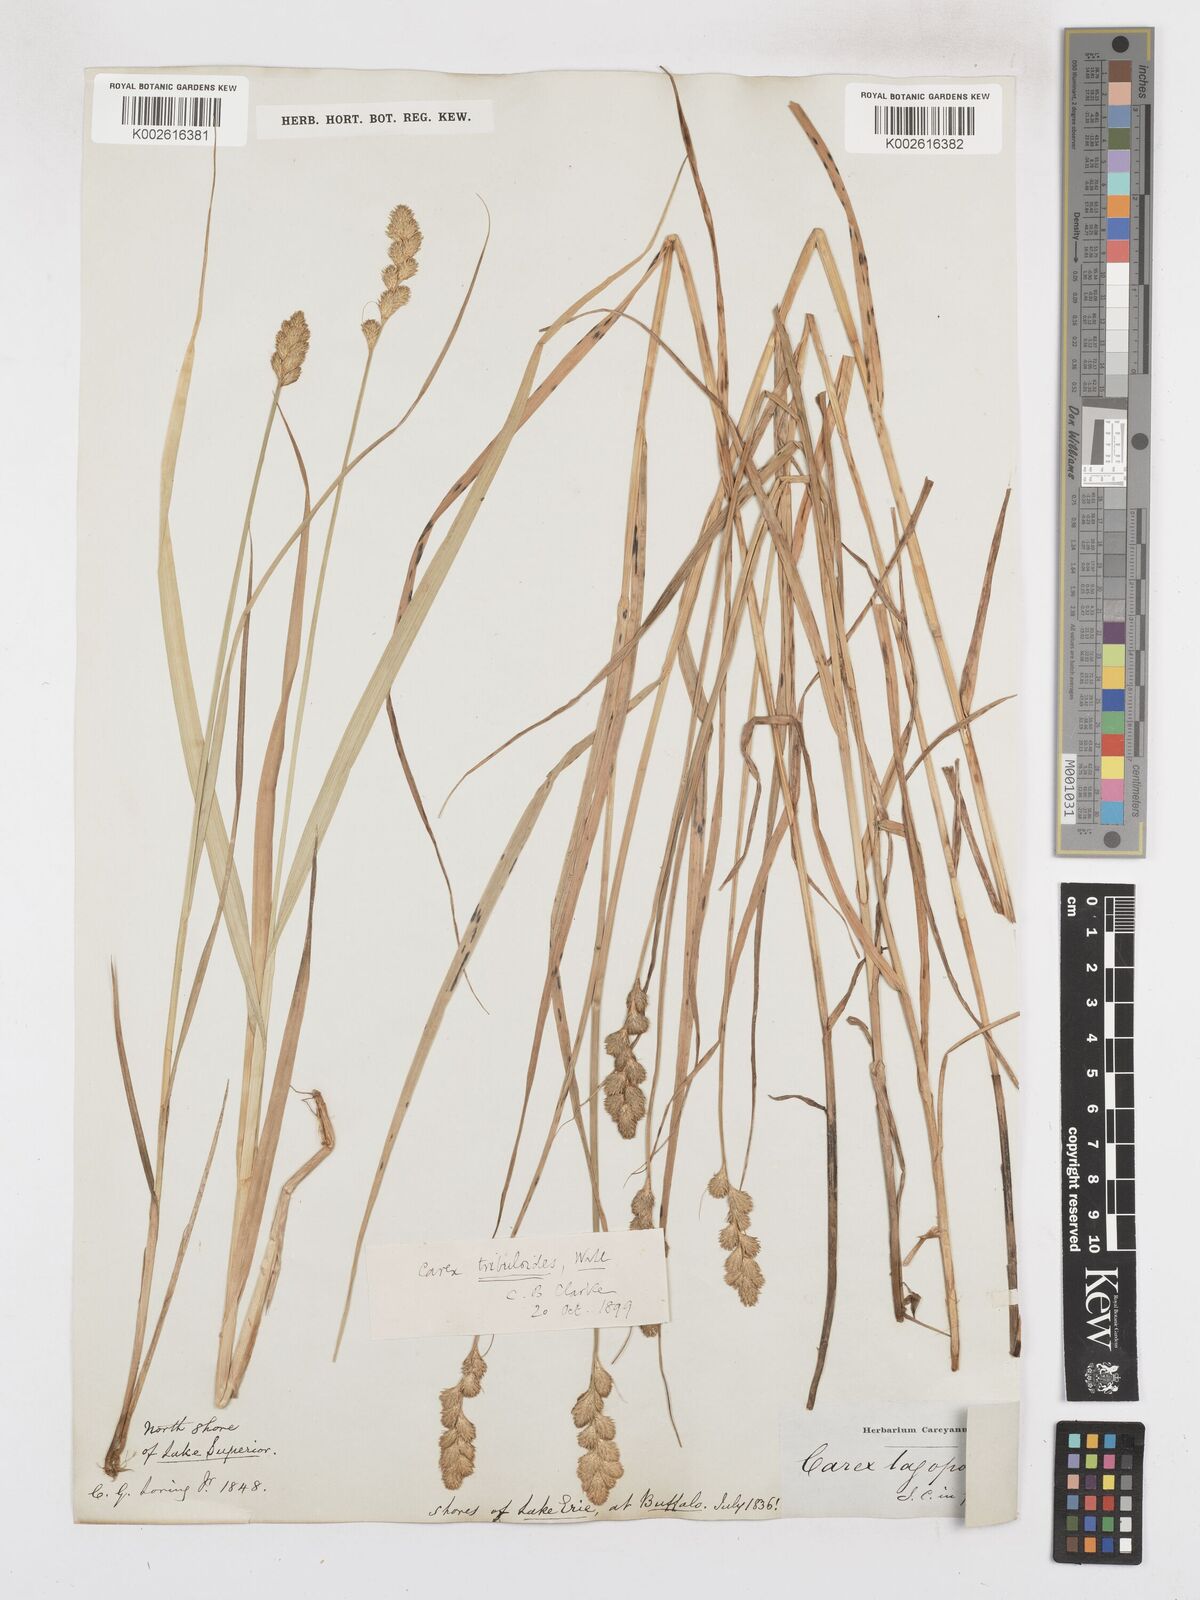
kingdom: Plantae
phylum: Tracheophyta
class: Liliopsida
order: Poales
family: Cyperaceae
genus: Carex
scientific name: Carex tribuloides
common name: Blunt broom sedge
